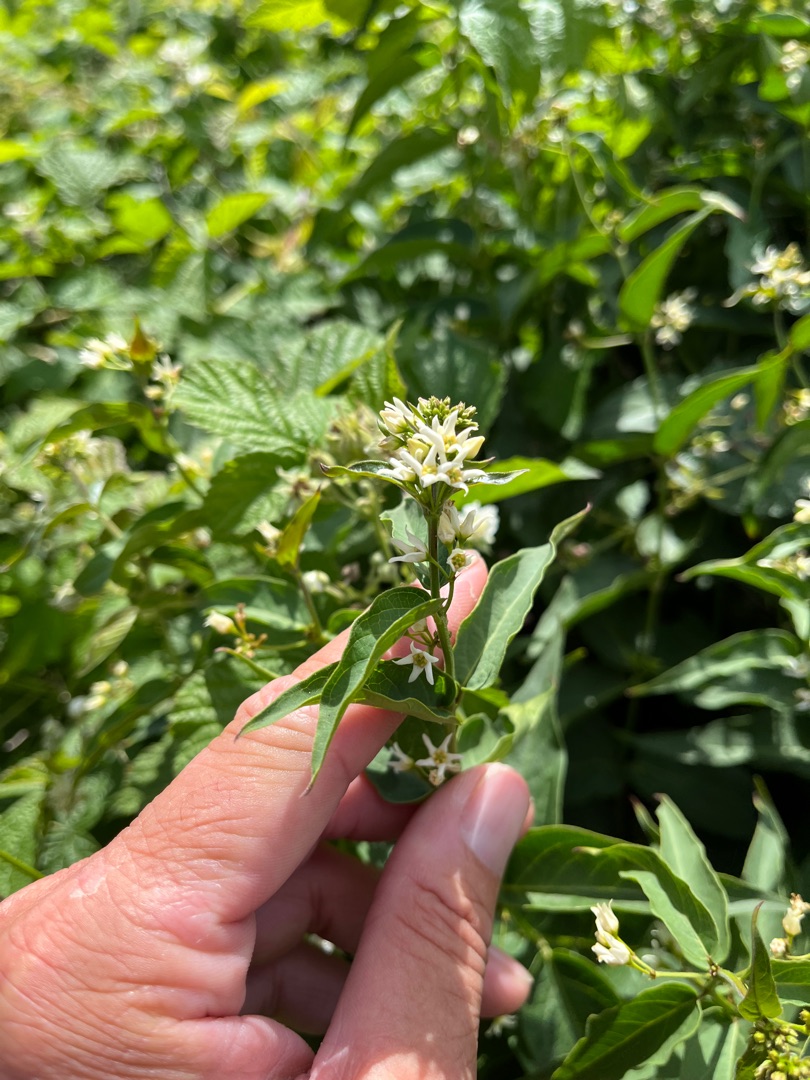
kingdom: Plantae
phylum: Tracheophyta
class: Magnoliopsida
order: Gentianales
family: Apocynaceae
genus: Vincetoxicum
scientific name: Vincetoxicum hirundinaria
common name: Svalerod
